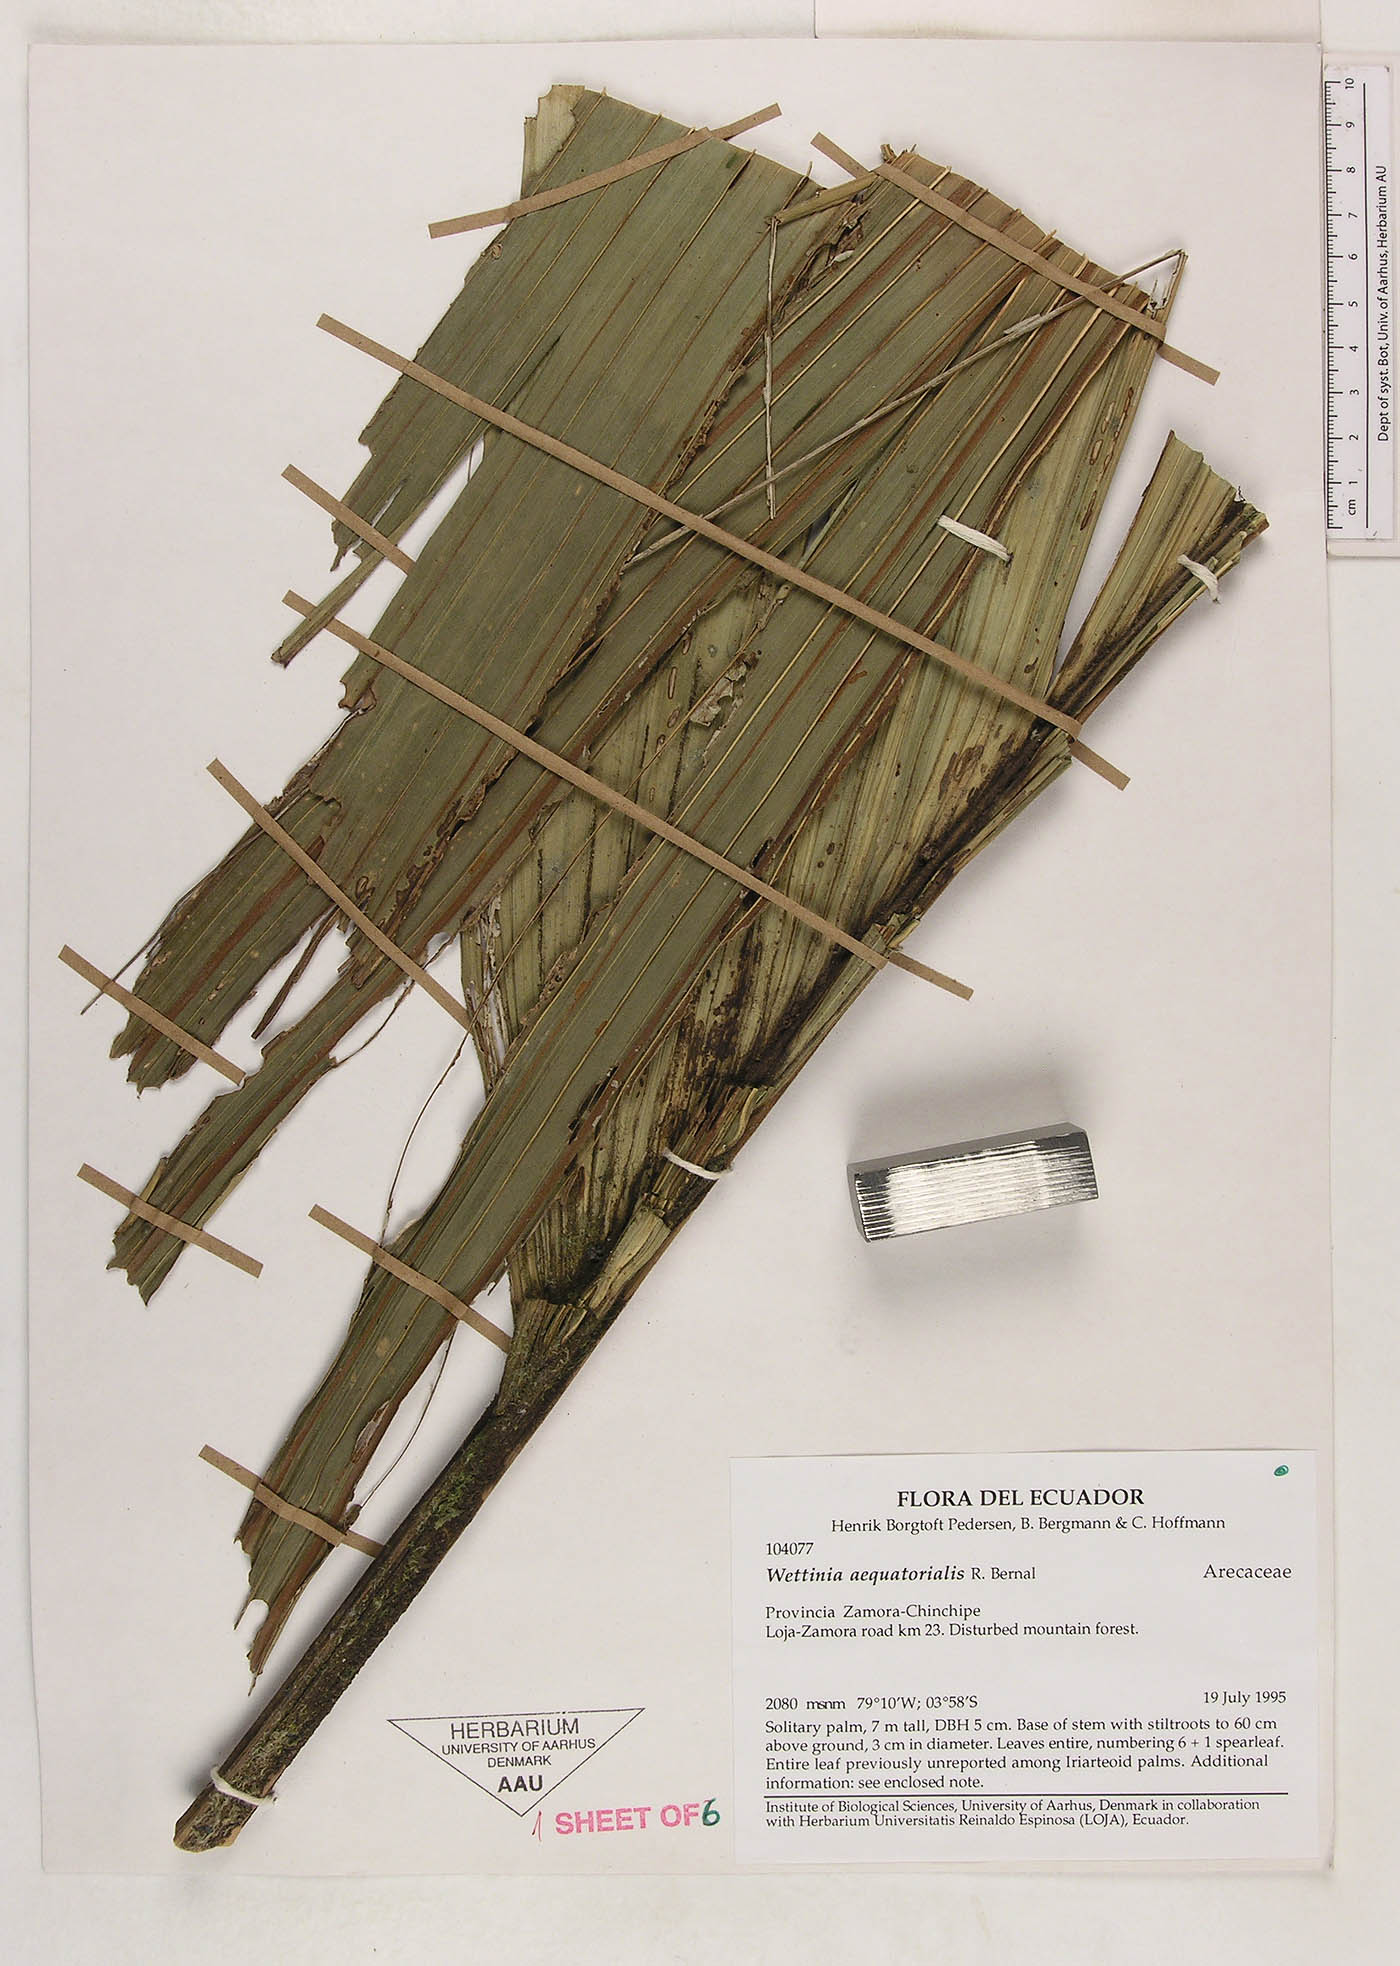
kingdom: Plantae
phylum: Tracheophyta
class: Liliopsida
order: Arecales
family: Arecaceae
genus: Wettinia
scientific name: Wettinia aequatorialis
